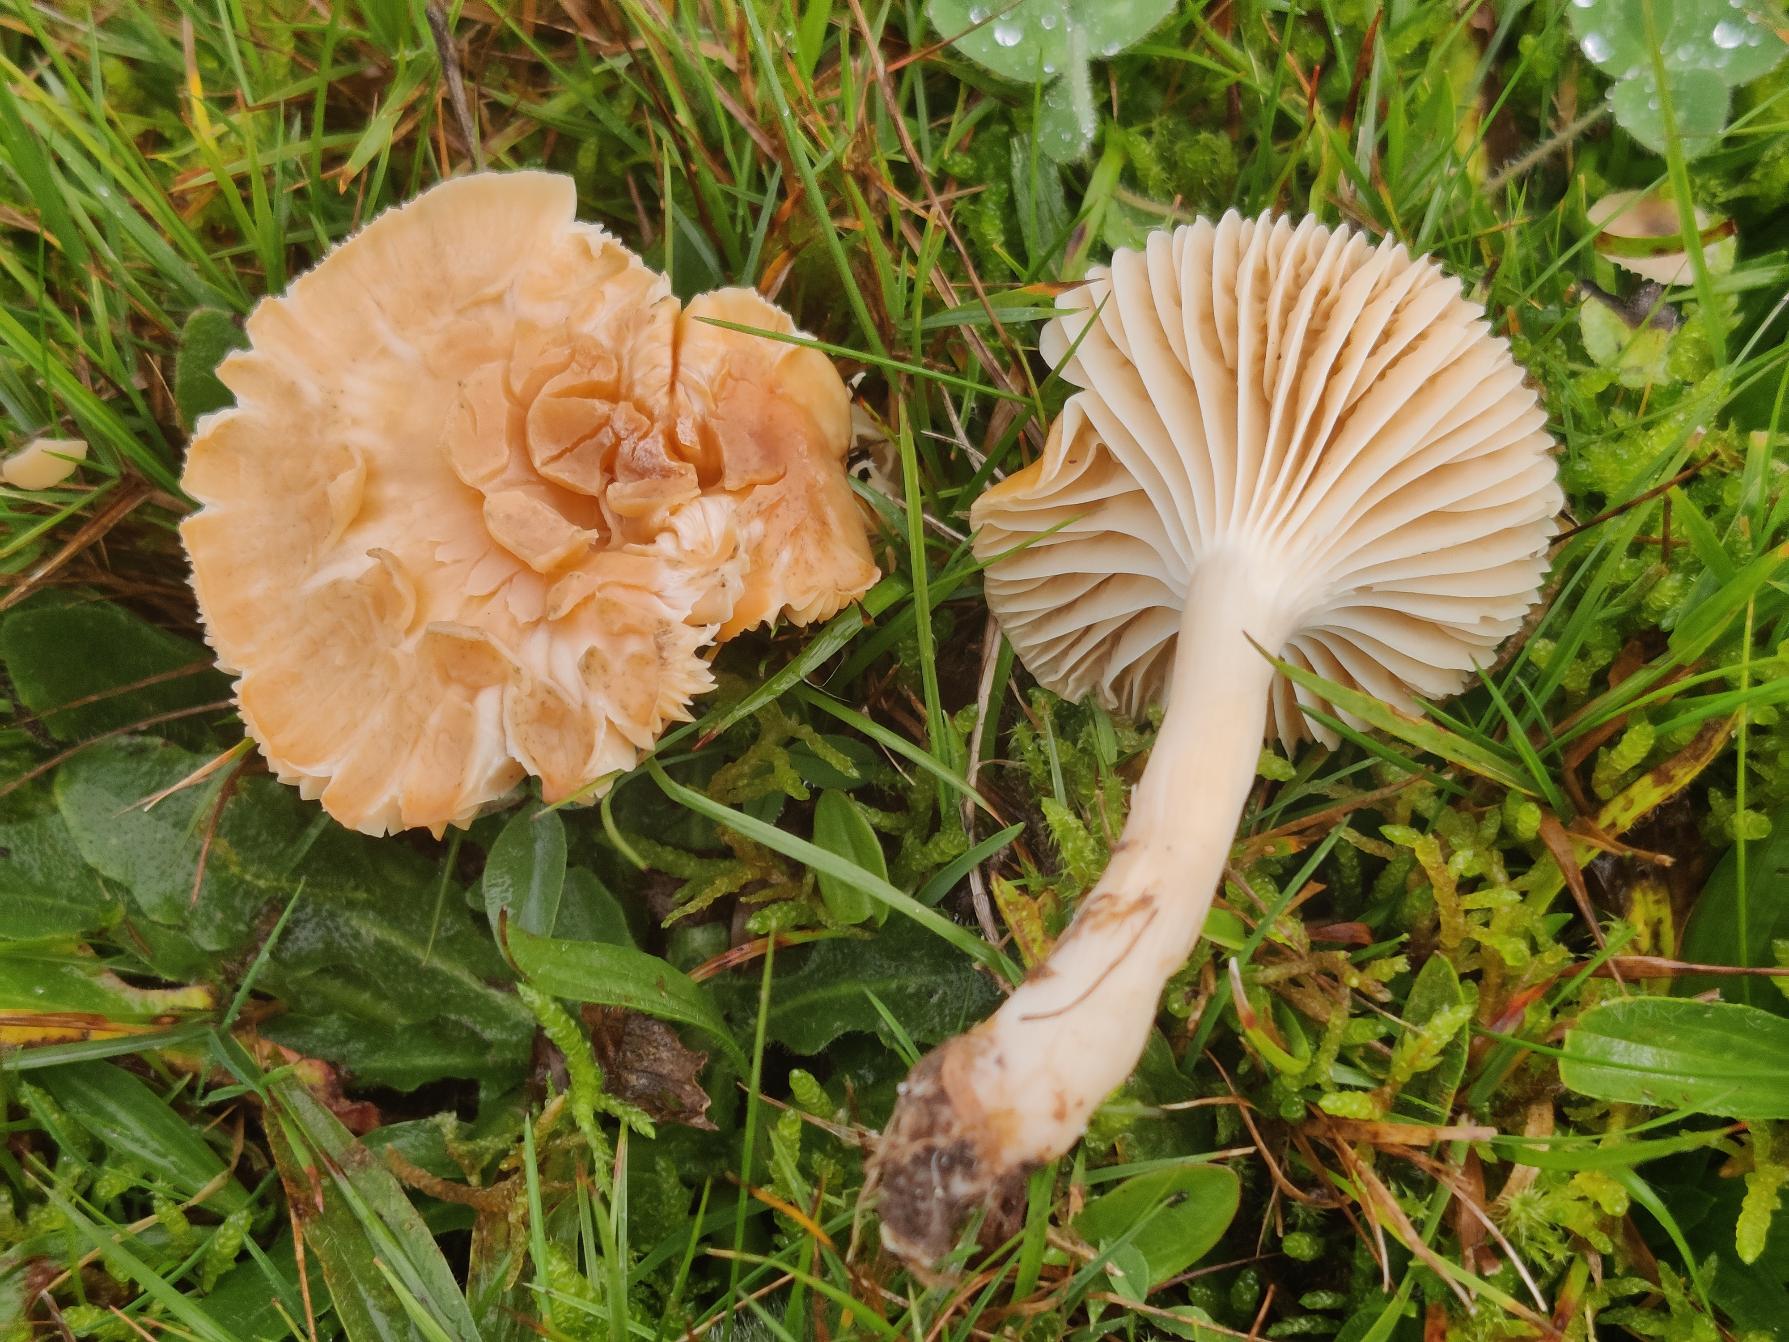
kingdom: Fungi
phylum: Basidiomycota
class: Agaricomycetes
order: Agaricales
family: Hygrophoraceae
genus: Cuphophyllus
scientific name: Cuphophyllus pratensis
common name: Eng-vokshat
